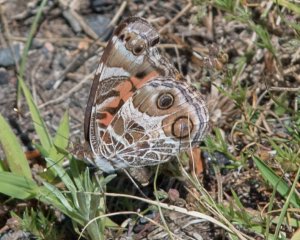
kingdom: Animalia
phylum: Arthropoda
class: Insecta
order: Lepidoptera
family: Nymphalidae
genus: Vanessa
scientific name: Vanessa virginiensis
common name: American Lady
